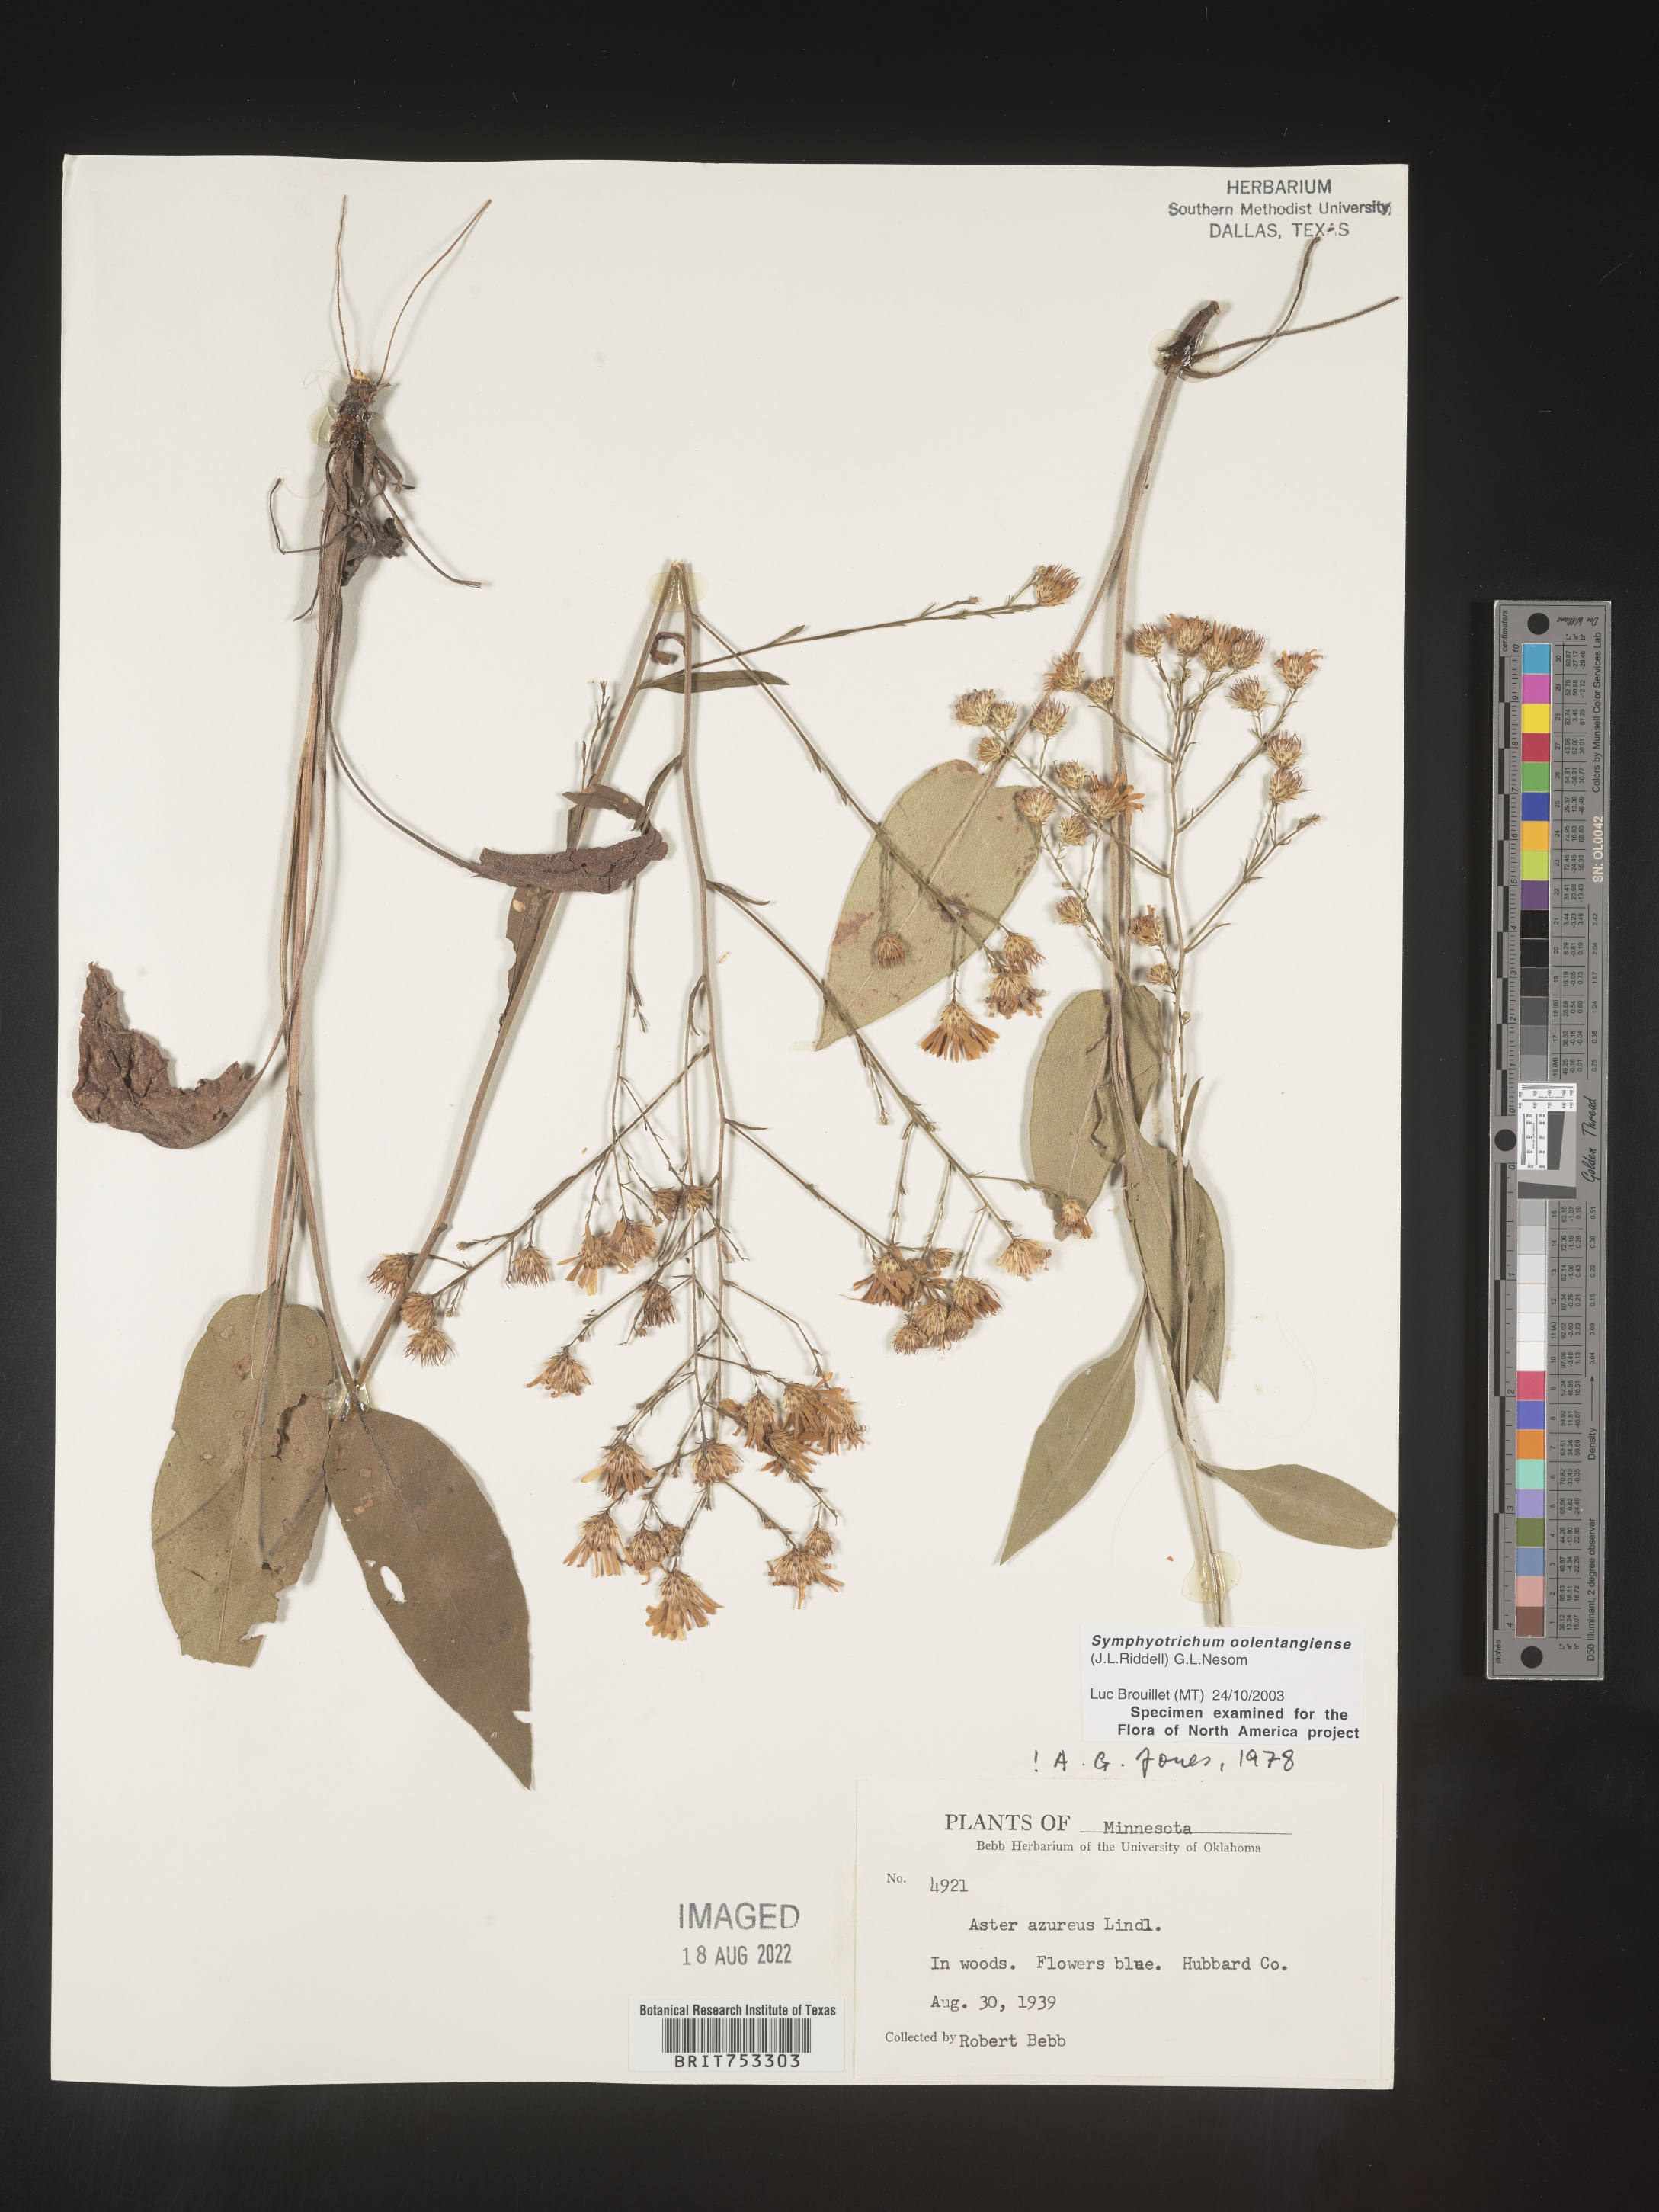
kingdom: Plantae
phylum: Tracheophyta
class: Magnoliopsida
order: Asterales
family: Asteraceae
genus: Symphyotrichum
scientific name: Symphyotrichum oolentangiense
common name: Azure aster
